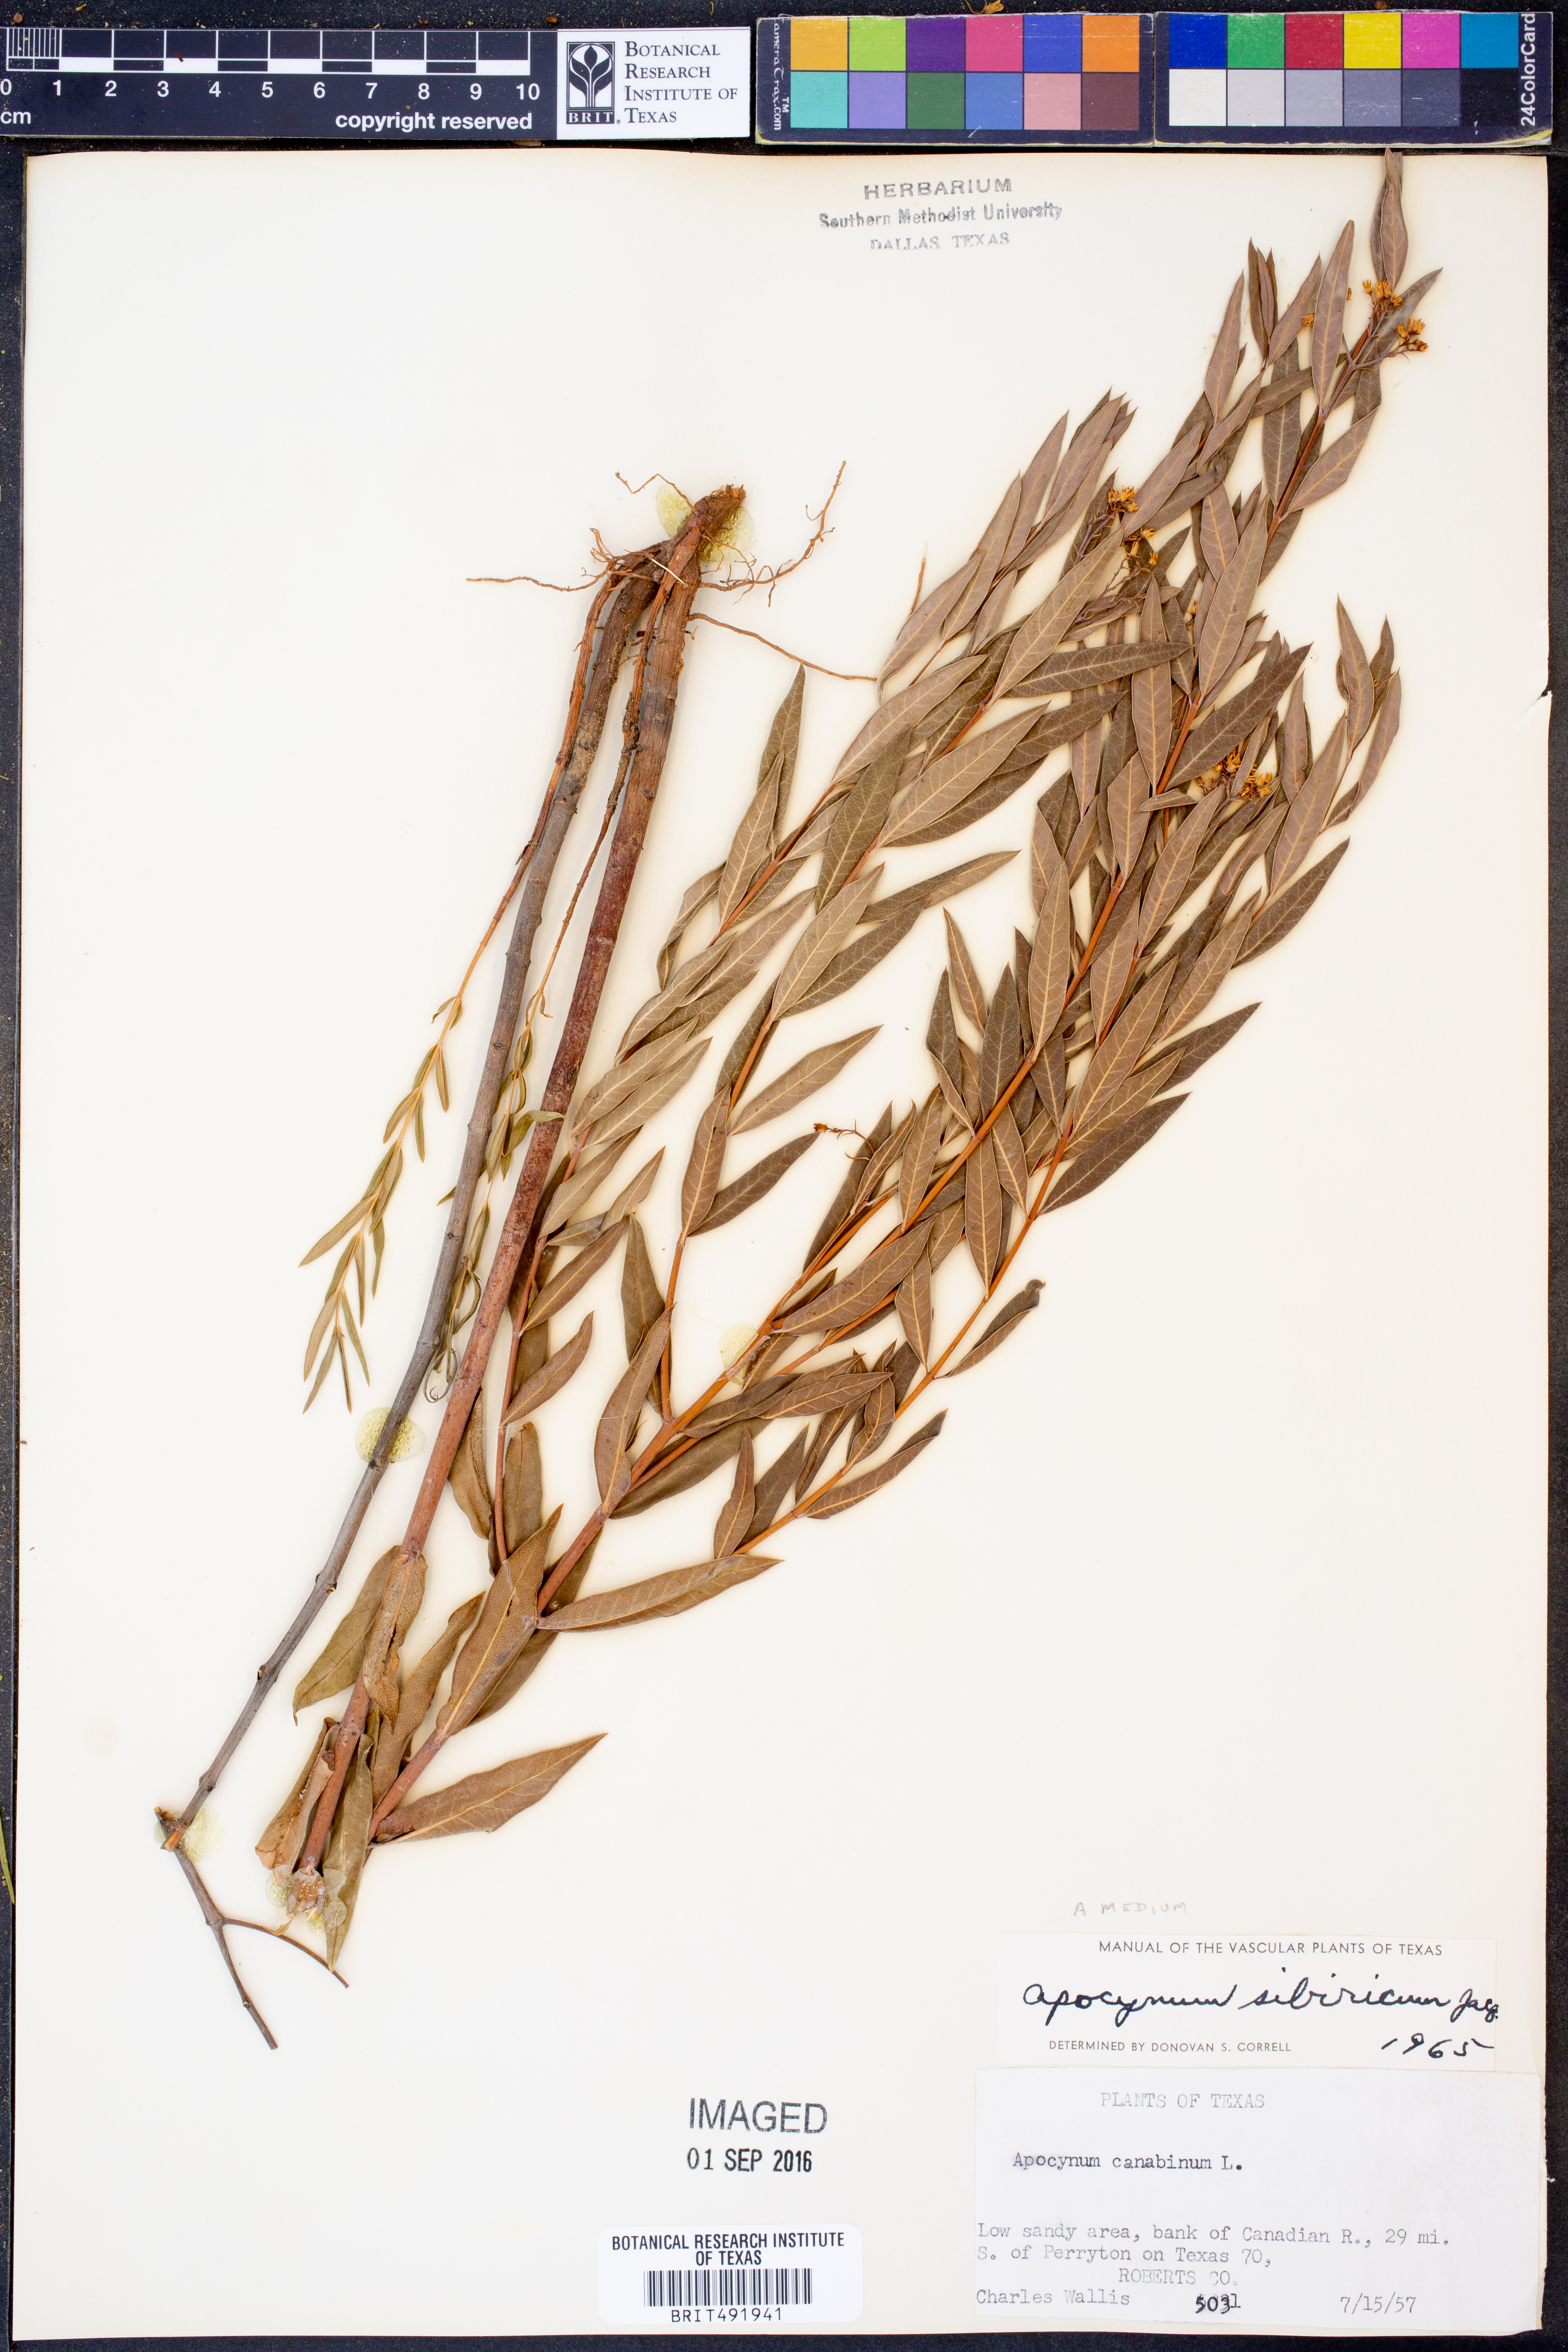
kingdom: Plantae
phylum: Tracheophyta
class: Magnoliopsida
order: Gentianales
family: Apocynaceae
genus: Apocynum
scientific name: Apocynum cannabinum
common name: Hemp dogbane
